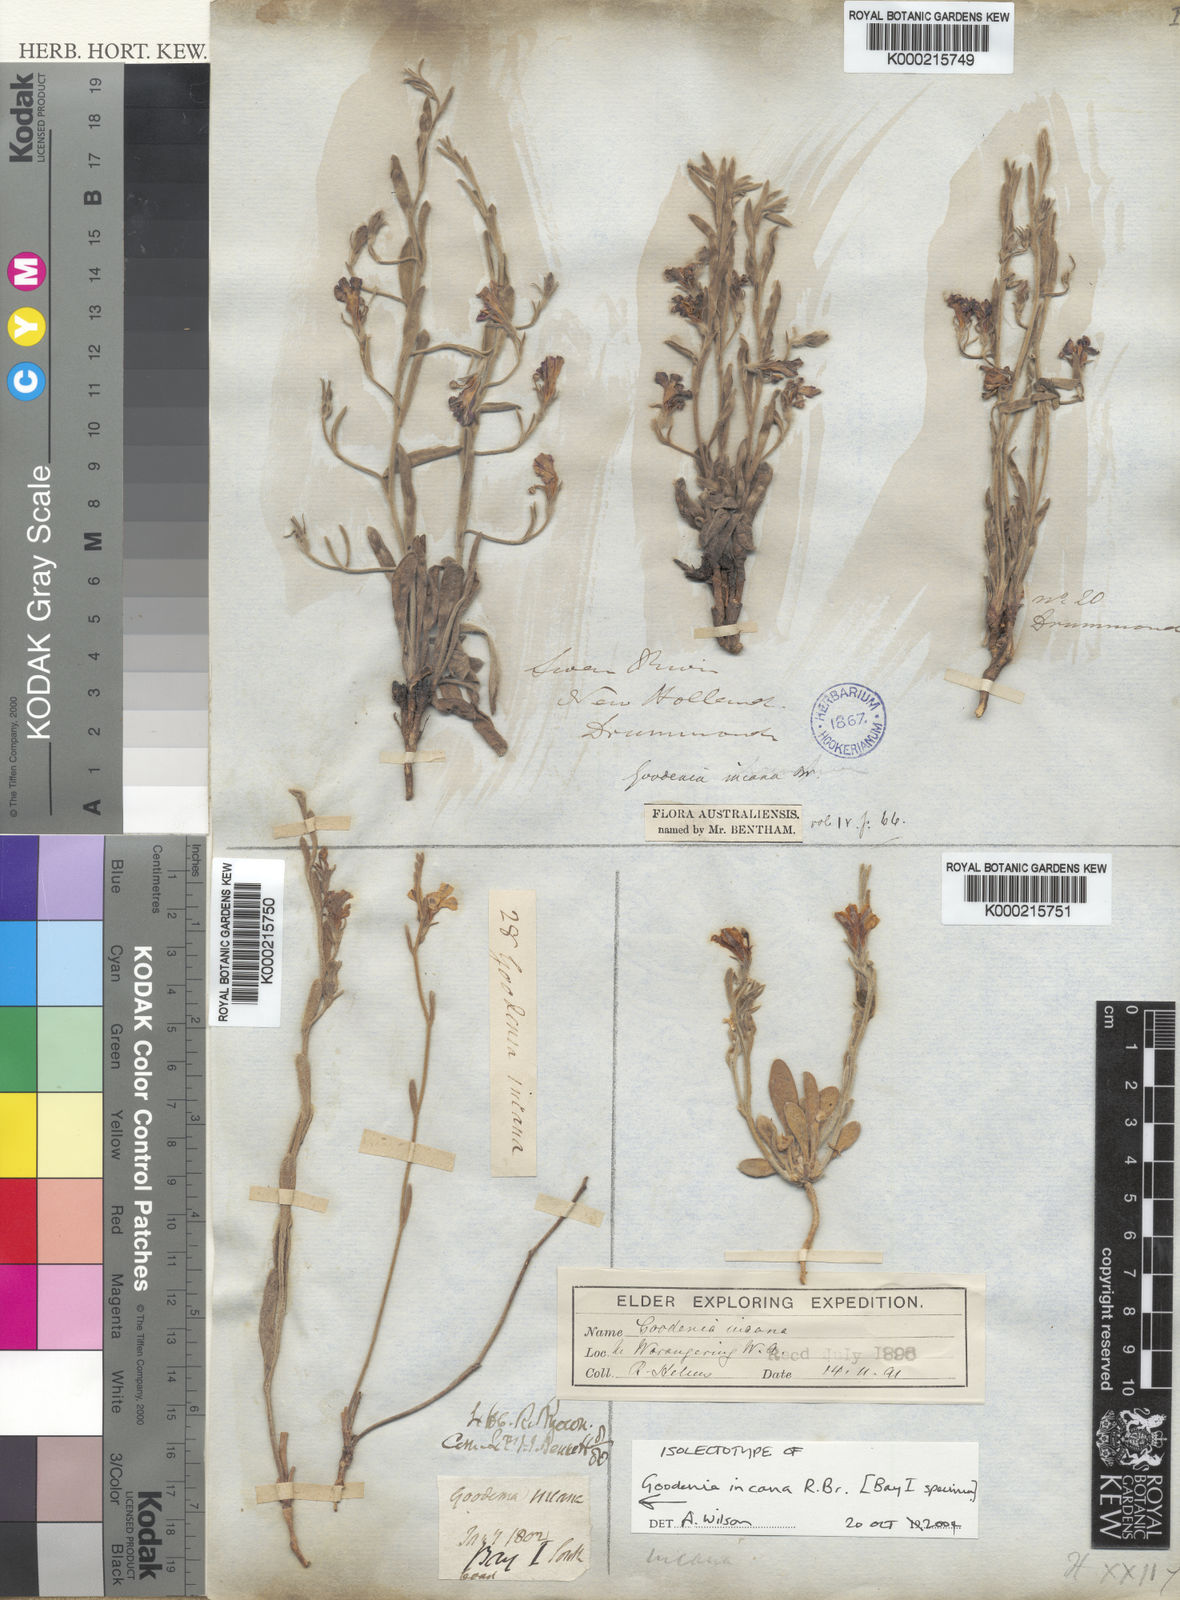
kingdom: Plantae
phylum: Tracheophyta
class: Magnoliopsida
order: Asterales
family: Goodeniaceae
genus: Goodenia
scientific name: Goodenia incana
